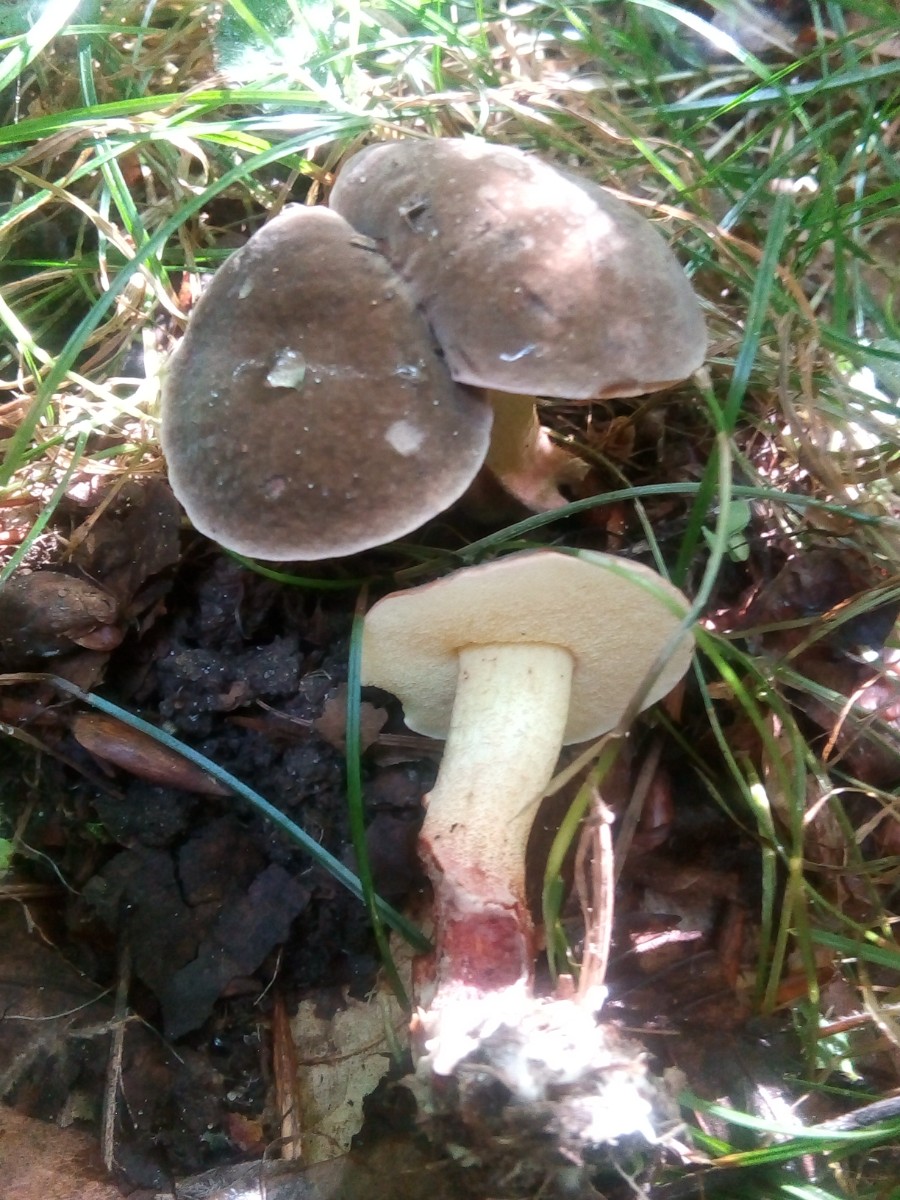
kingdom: Fungi
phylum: Basidiomycota
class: Agaricomycetes
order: Boletales
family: Boletaceae
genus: Xerocomellus
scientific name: Xerocomellus chrysenteron
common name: rødsprukken rørhat
